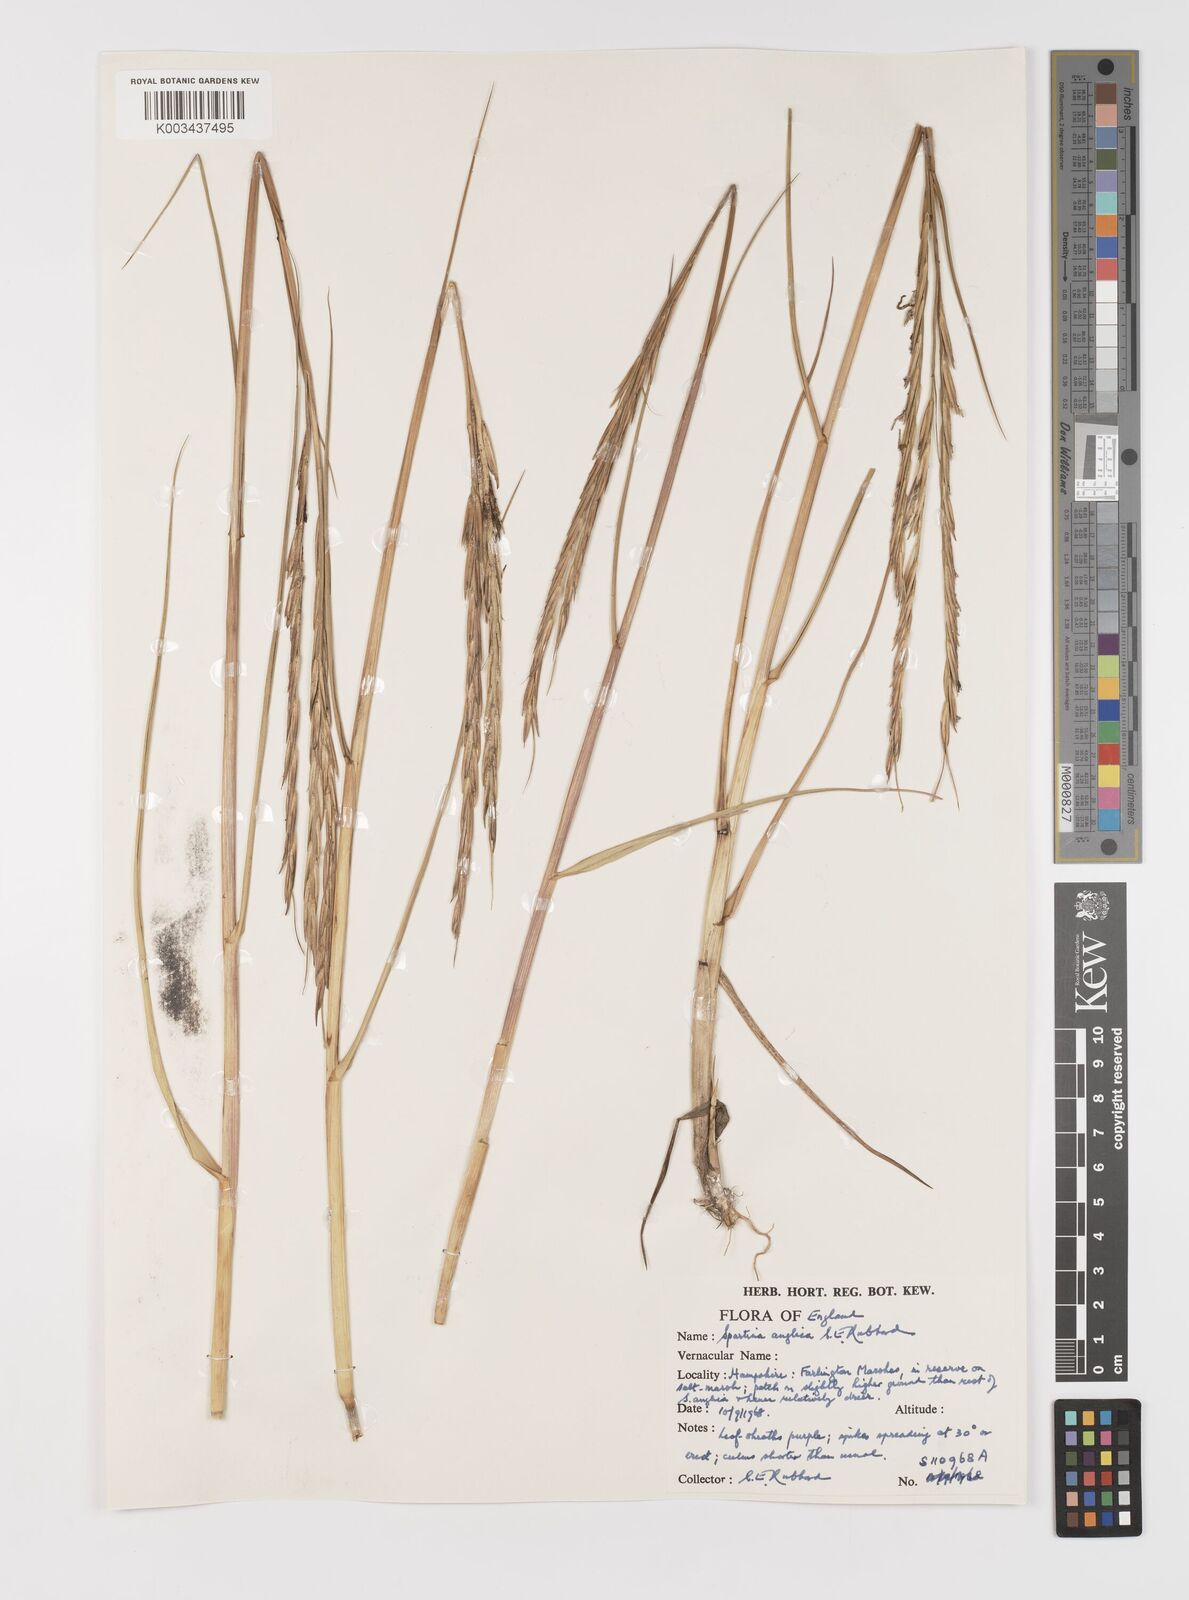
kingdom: Plantae
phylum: Tracheophyta
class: Liliopsida
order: Poales
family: Poaceae
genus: Sporobolus
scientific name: Sporobolus anglicus
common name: English cordgrass
